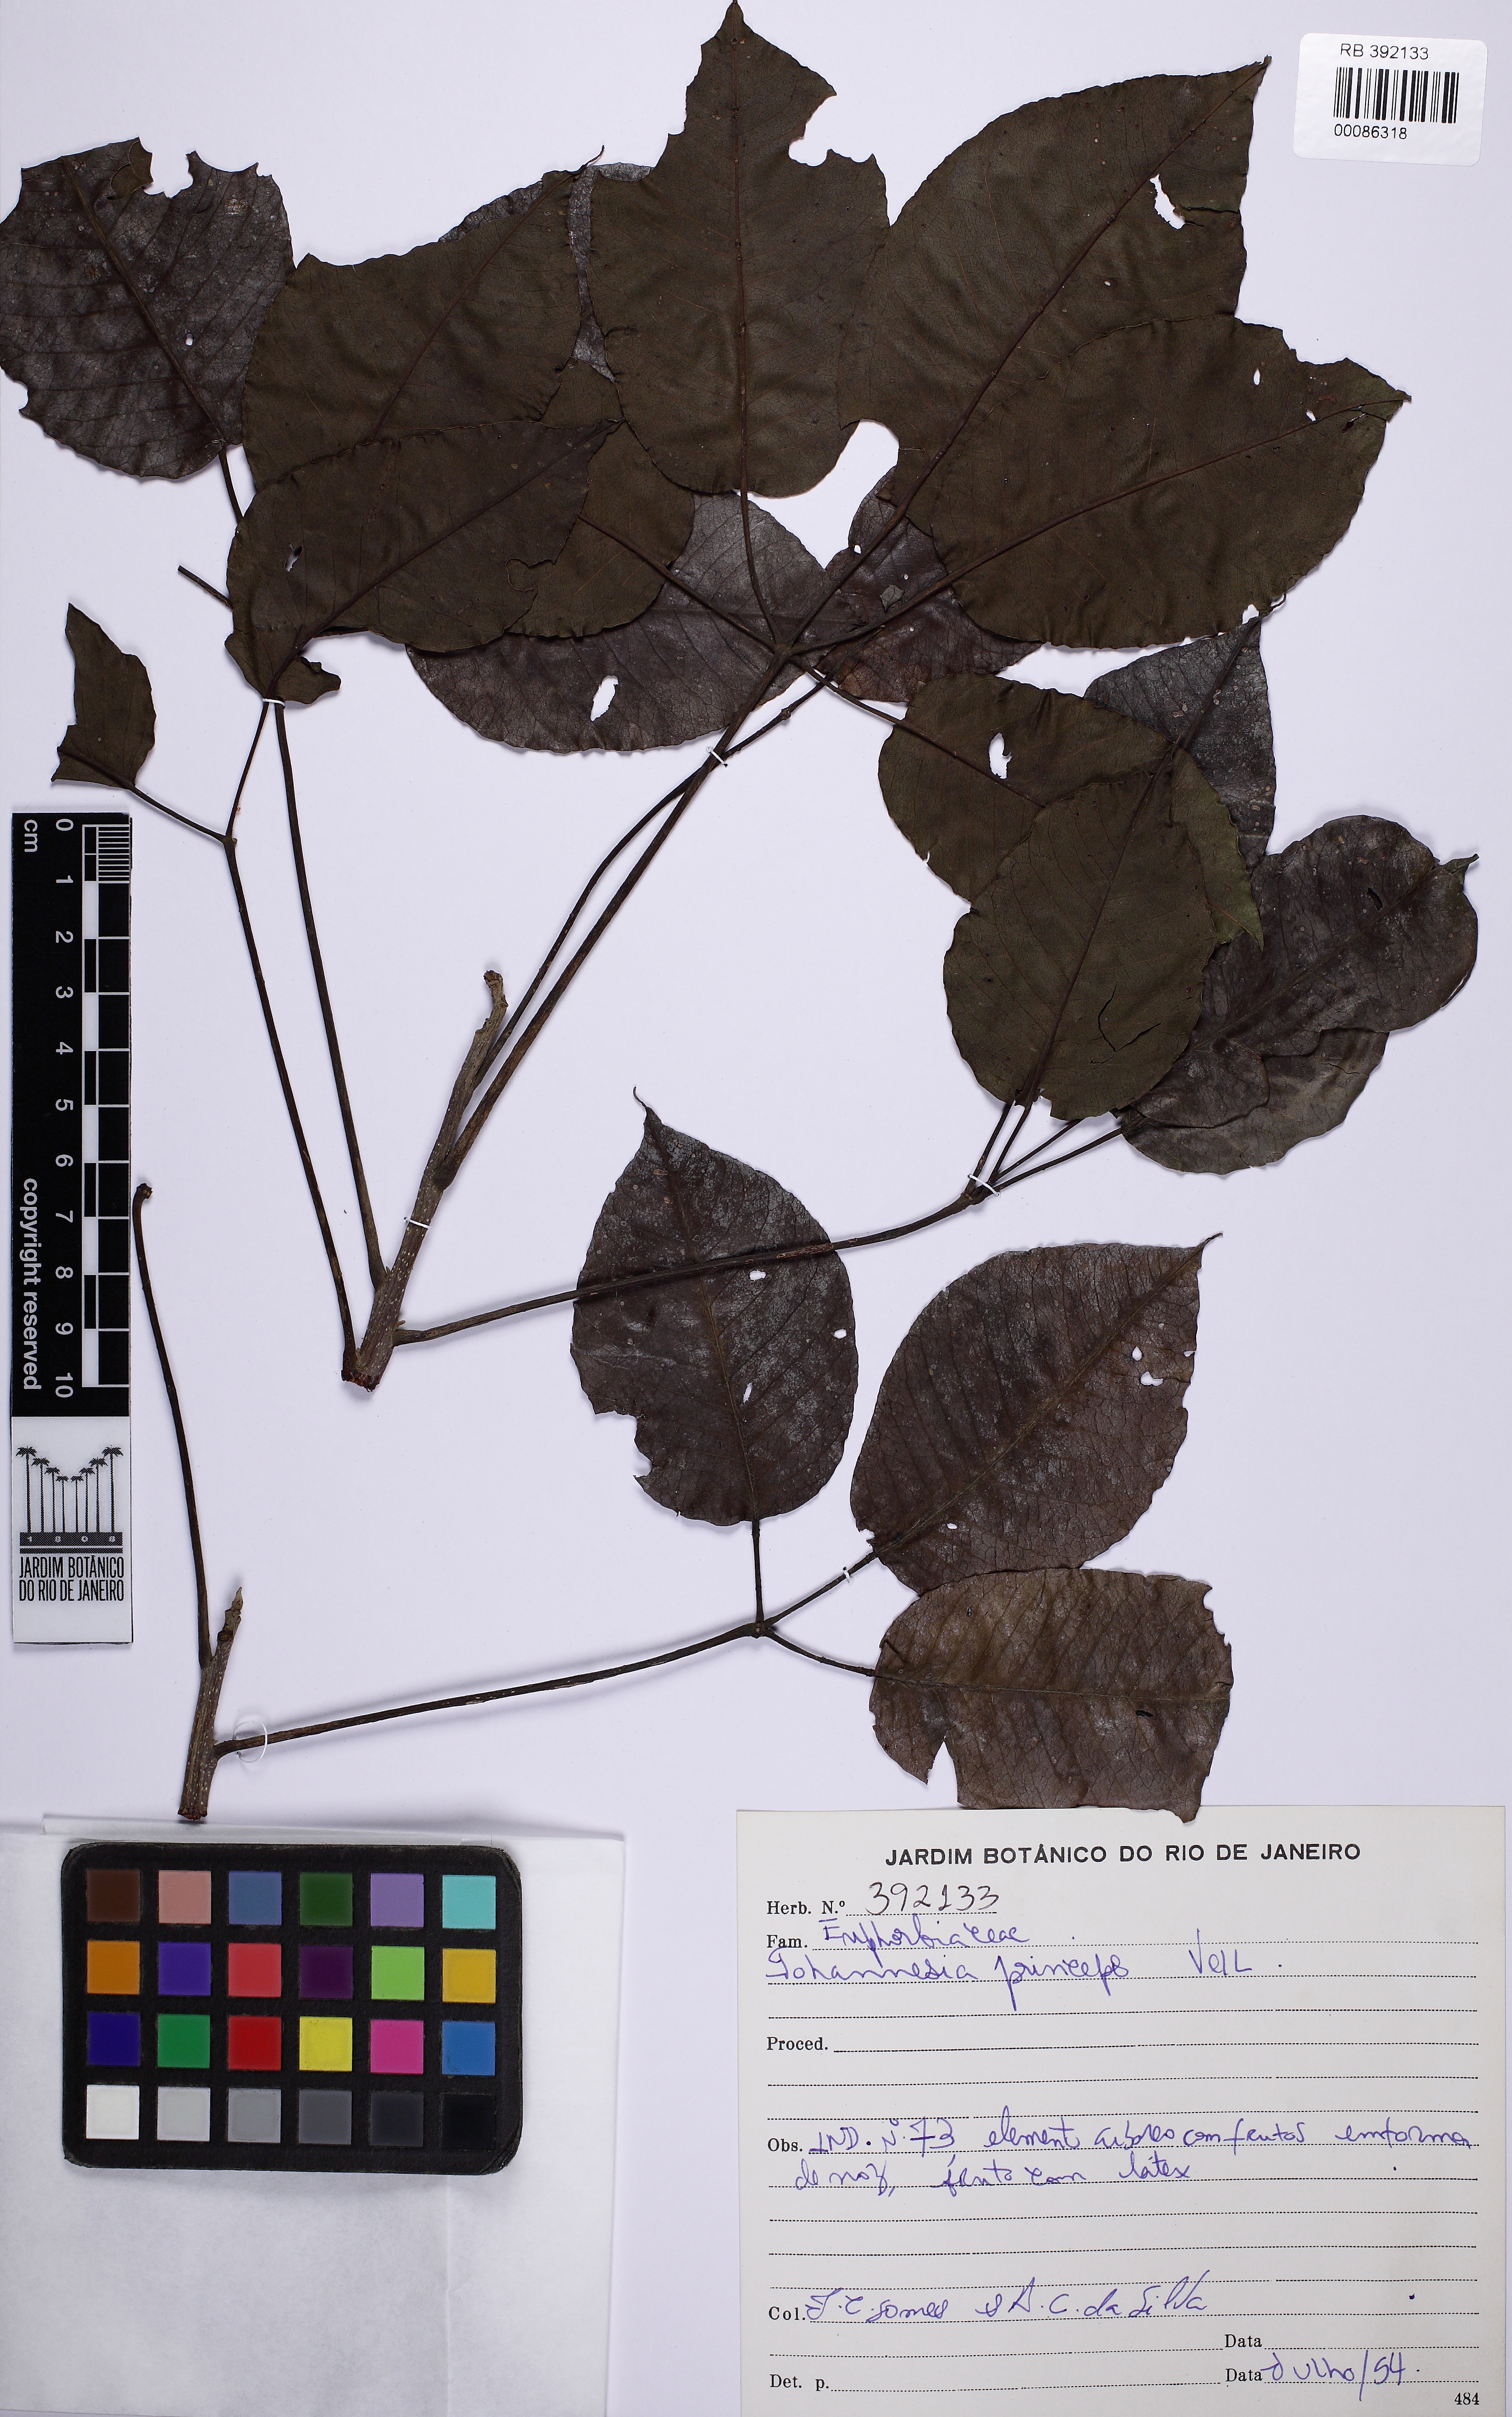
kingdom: Plantae
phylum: Tracheophyta
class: Magnoliopsida
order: Malpighiales
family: Euphorbiaceae
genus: Joannesia
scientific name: Joannesia princeps
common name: Arara nut-tree
